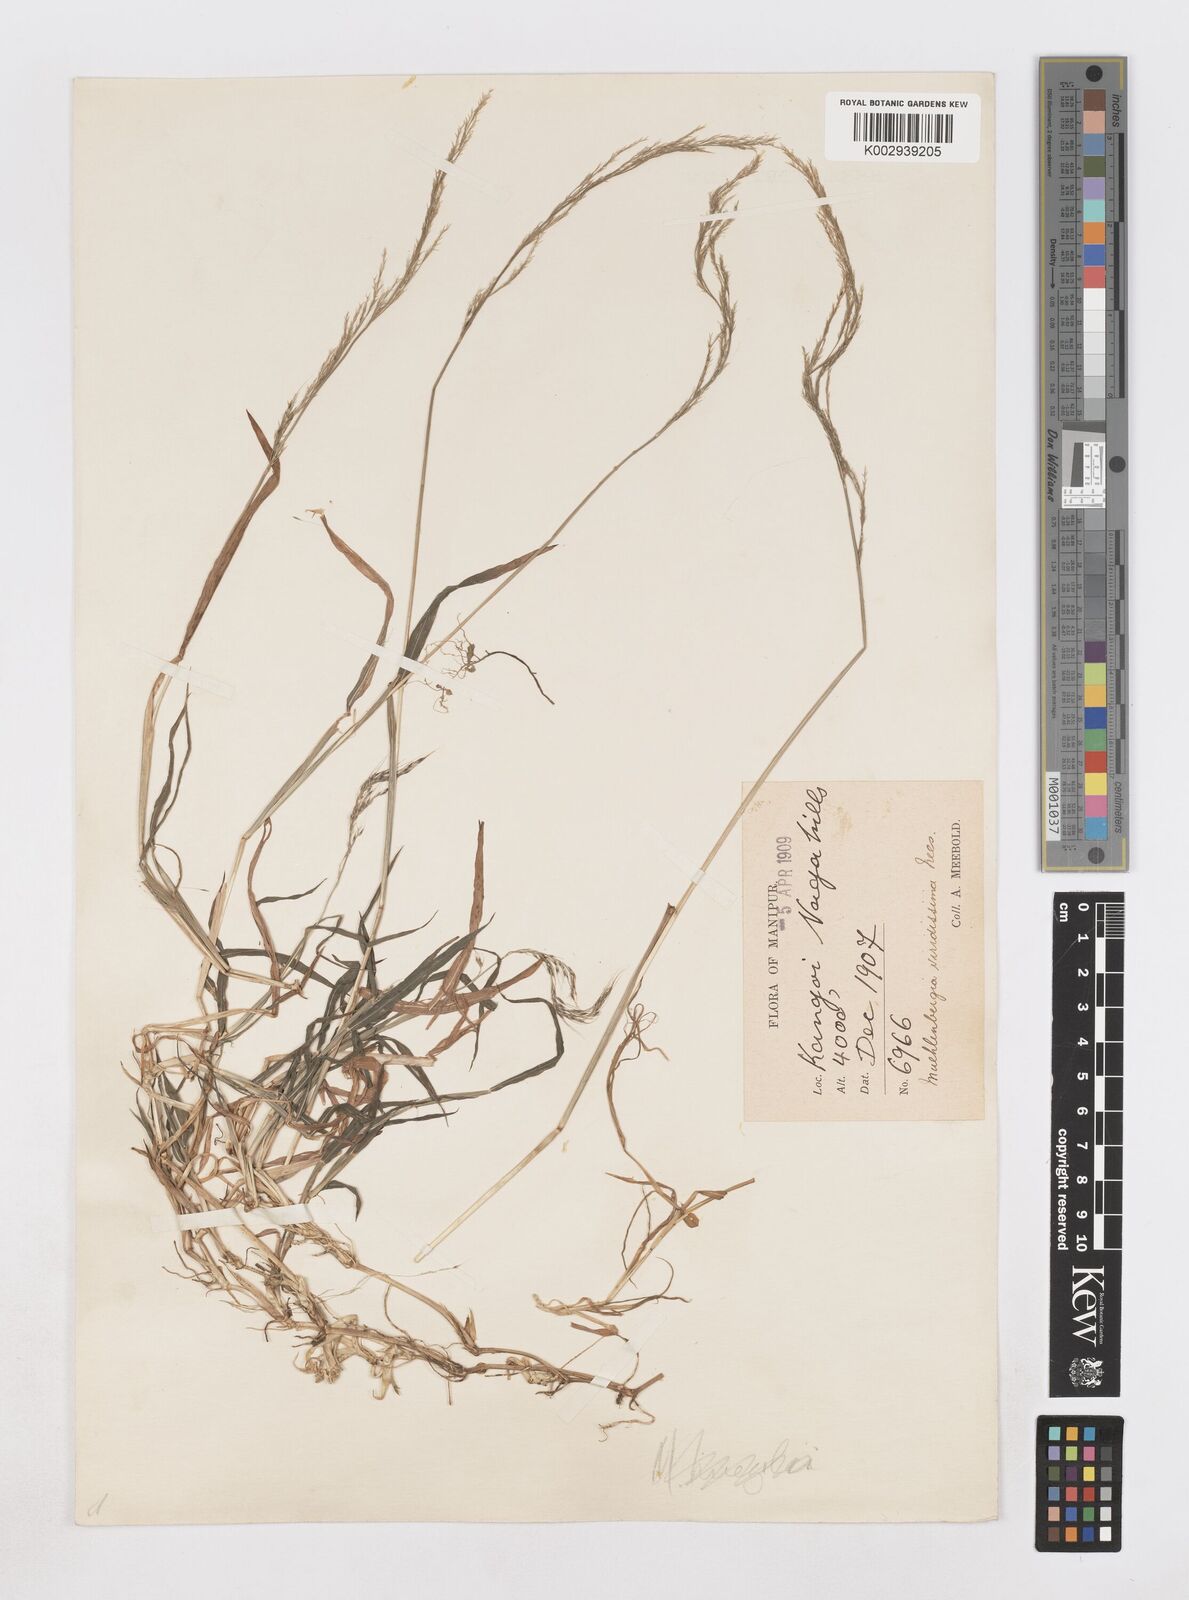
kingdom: Plantae
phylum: Tracheophyta
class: Liliopsida
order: Poales
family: Poaceae
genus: Muhlenbergia
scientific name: Muhlenbergia huegelii
